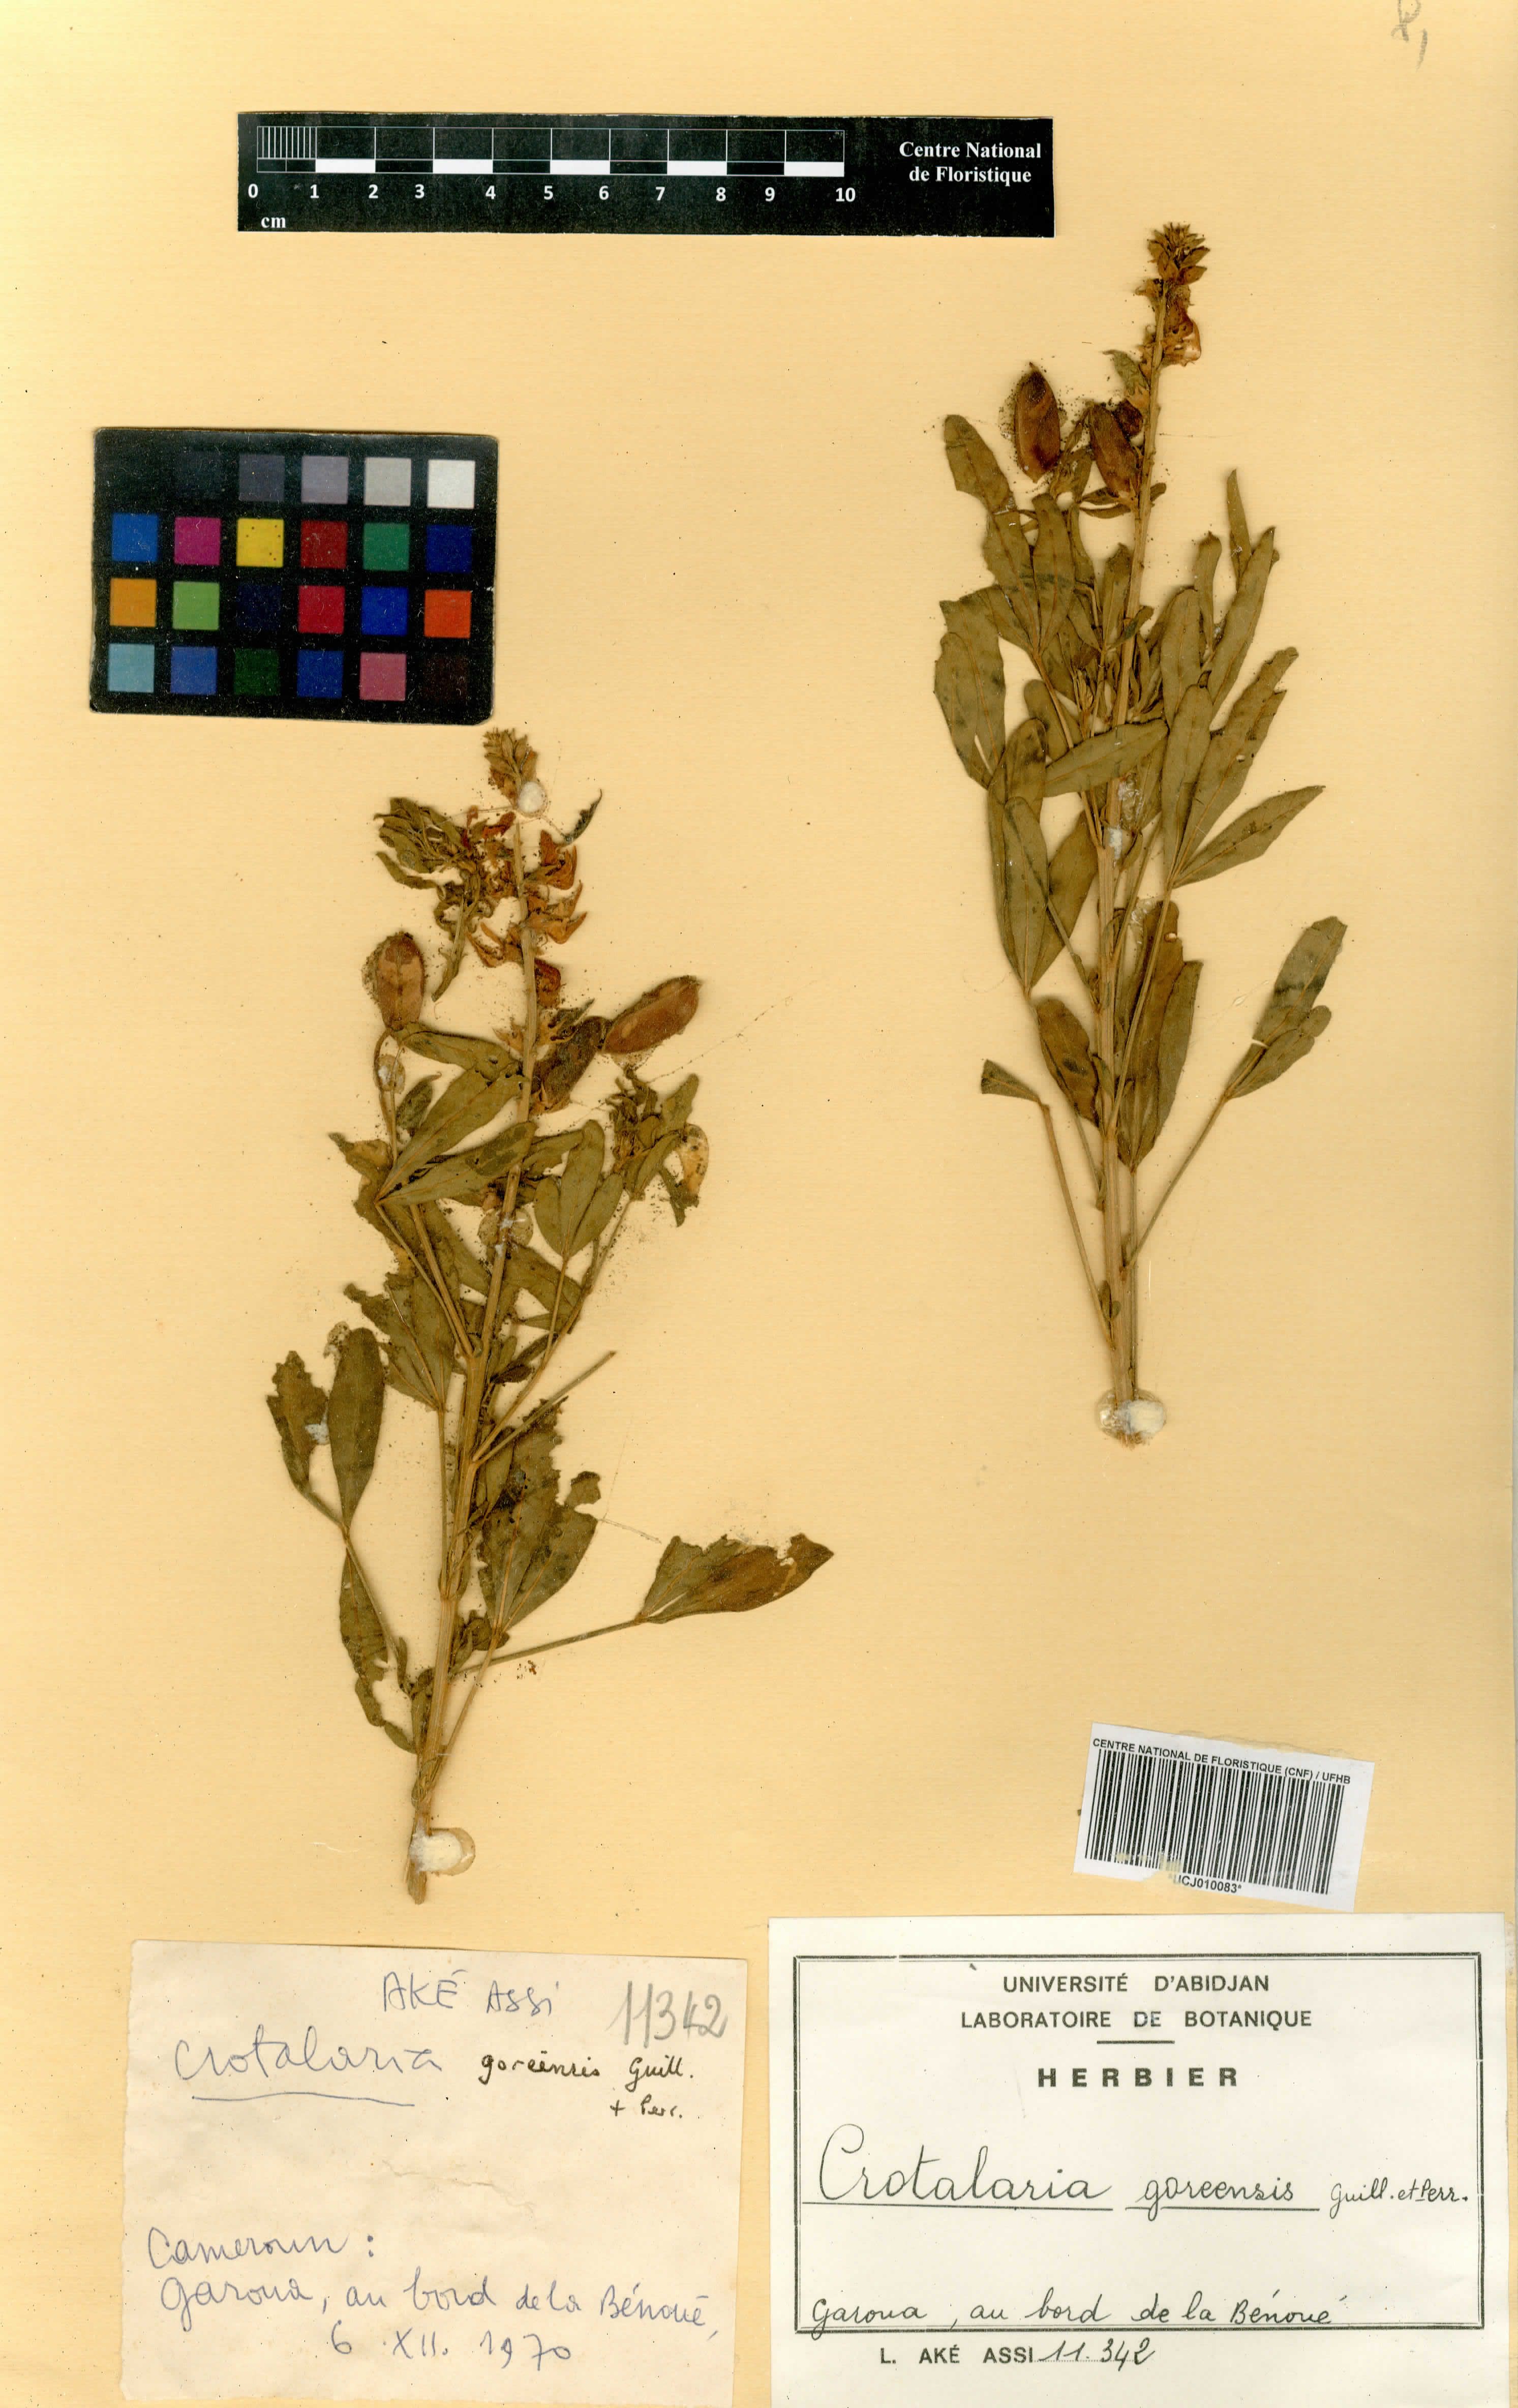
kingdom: Plantae
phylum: Tracheophyta
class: Magnoliopsida
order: Fabales
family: Fabaceae
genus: Crotalaria
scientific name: Crotalaria goreensis
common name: Gambia-pea
